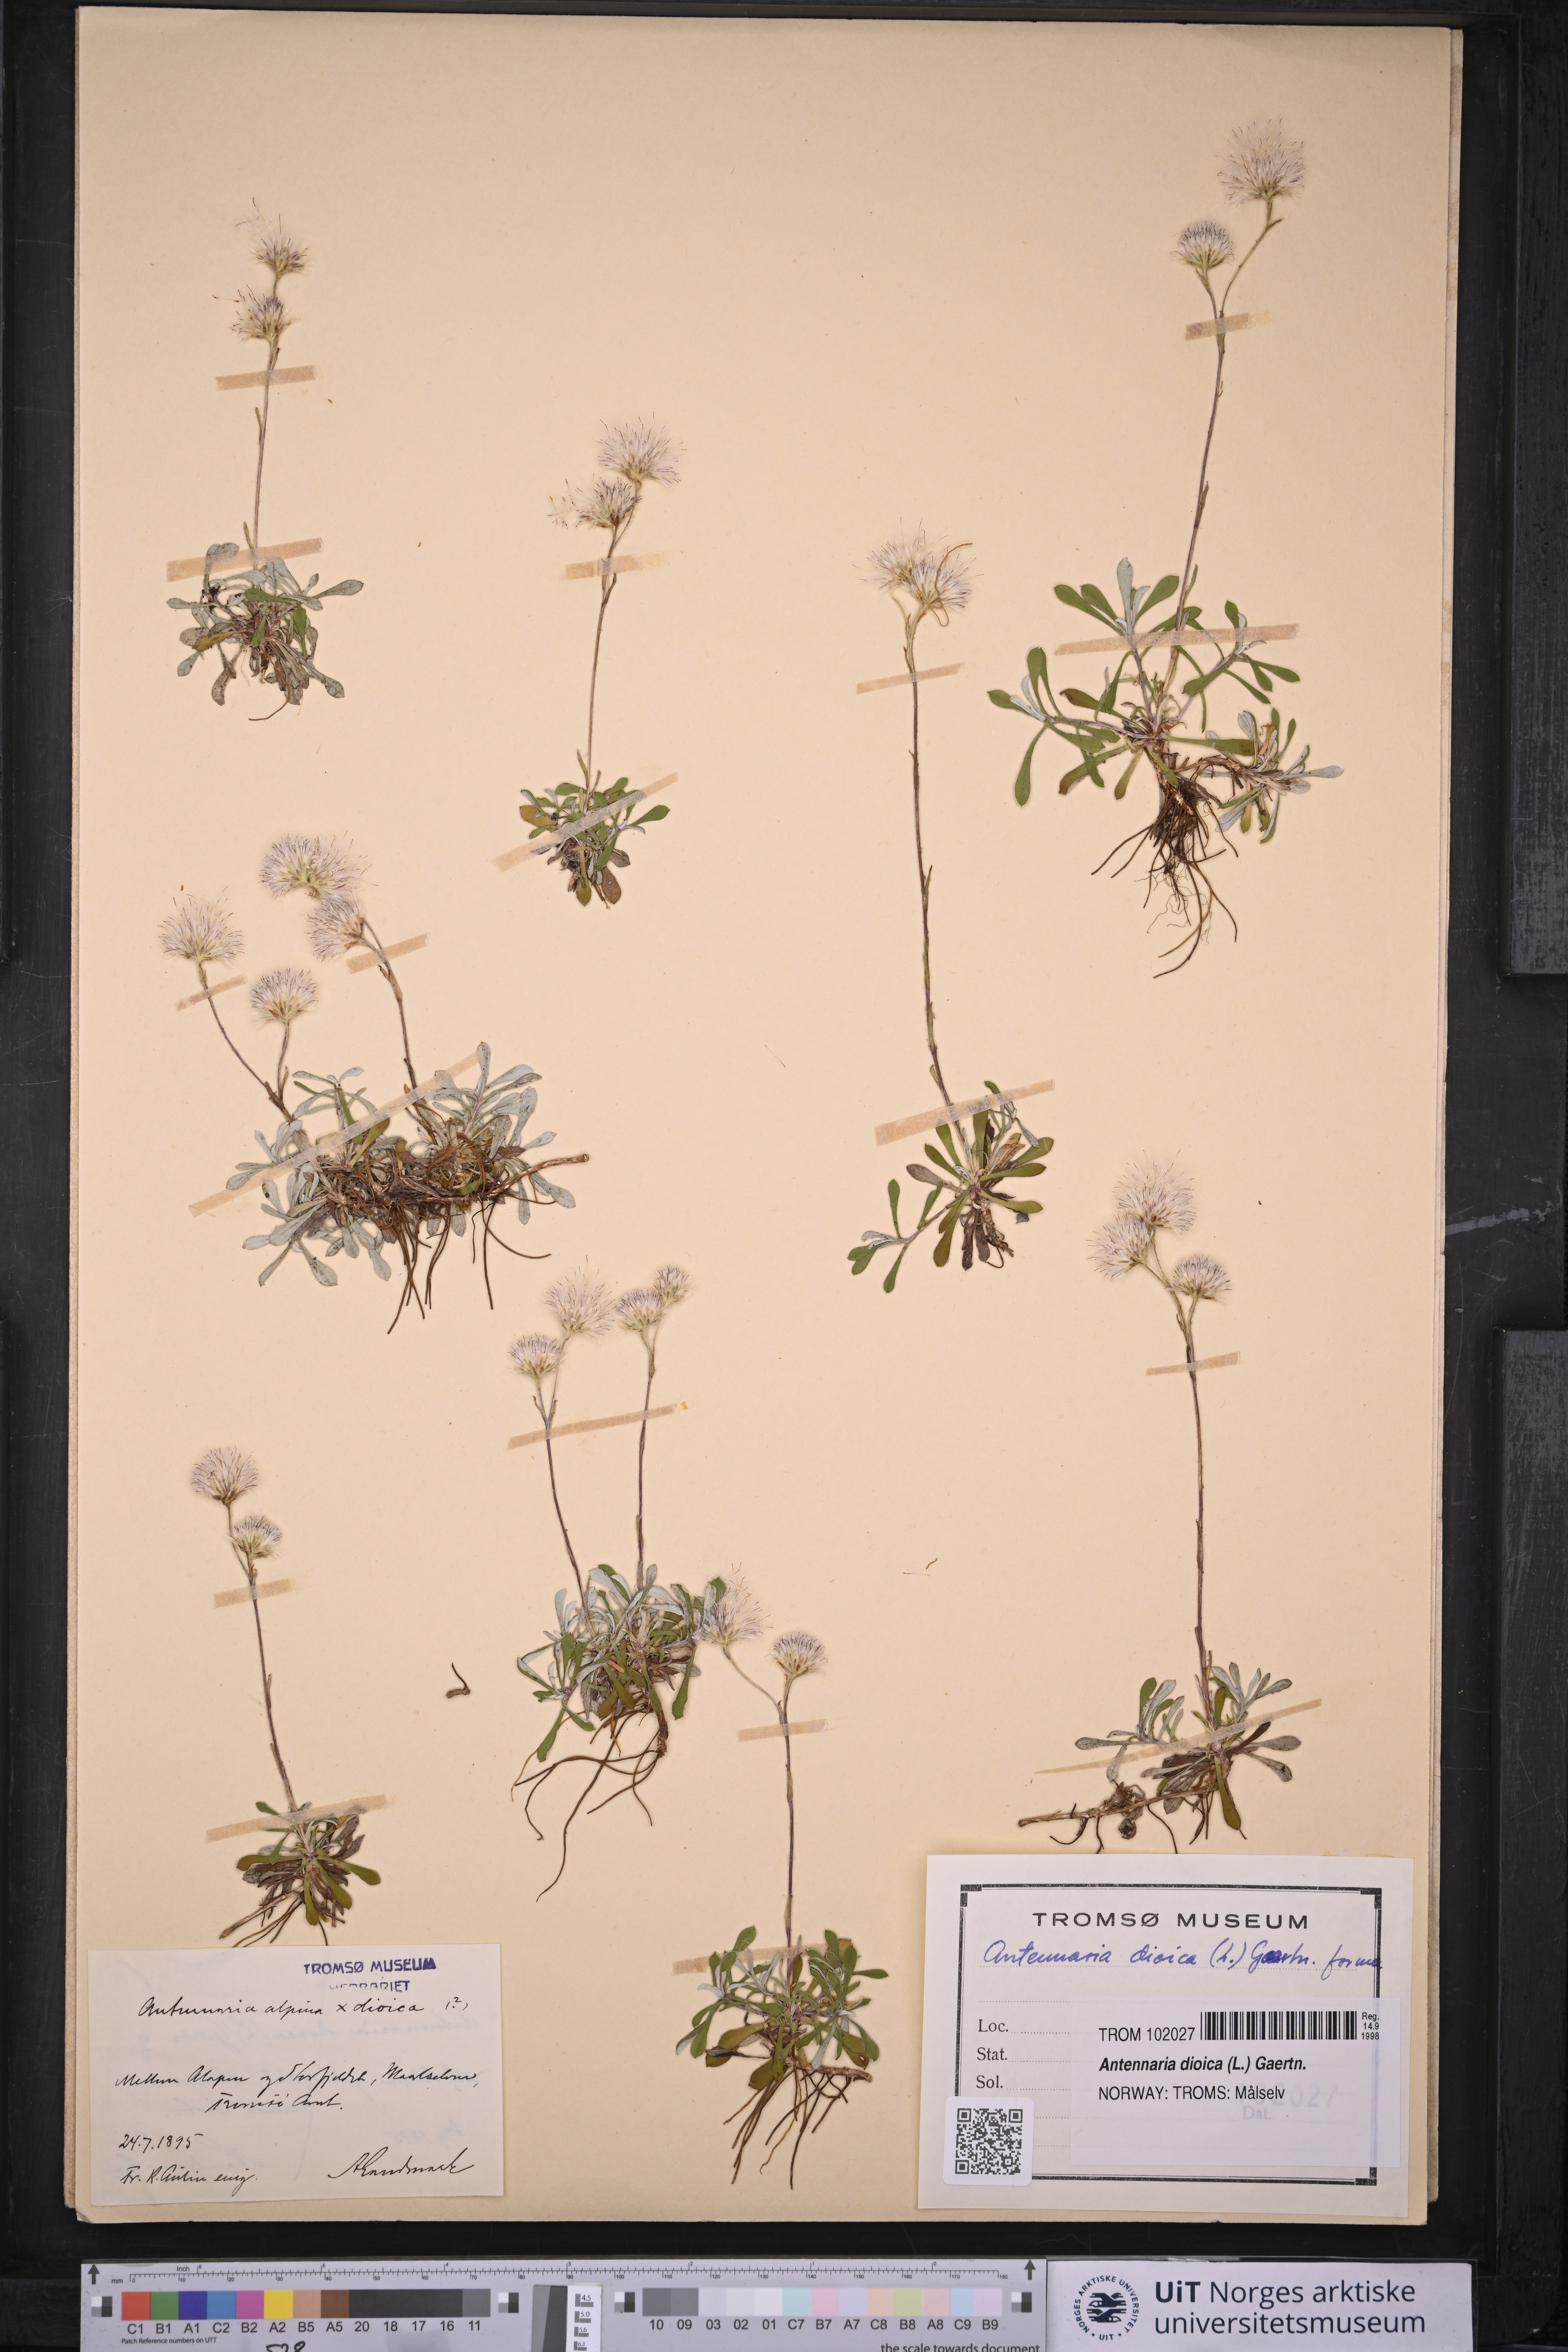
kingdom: Plantae
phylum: Tracheophyta
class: Magnoliopsida
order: Asterales
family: Asteraceae
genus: Antennaria
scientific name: Antennaria dioica
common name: Mountain everlasting
